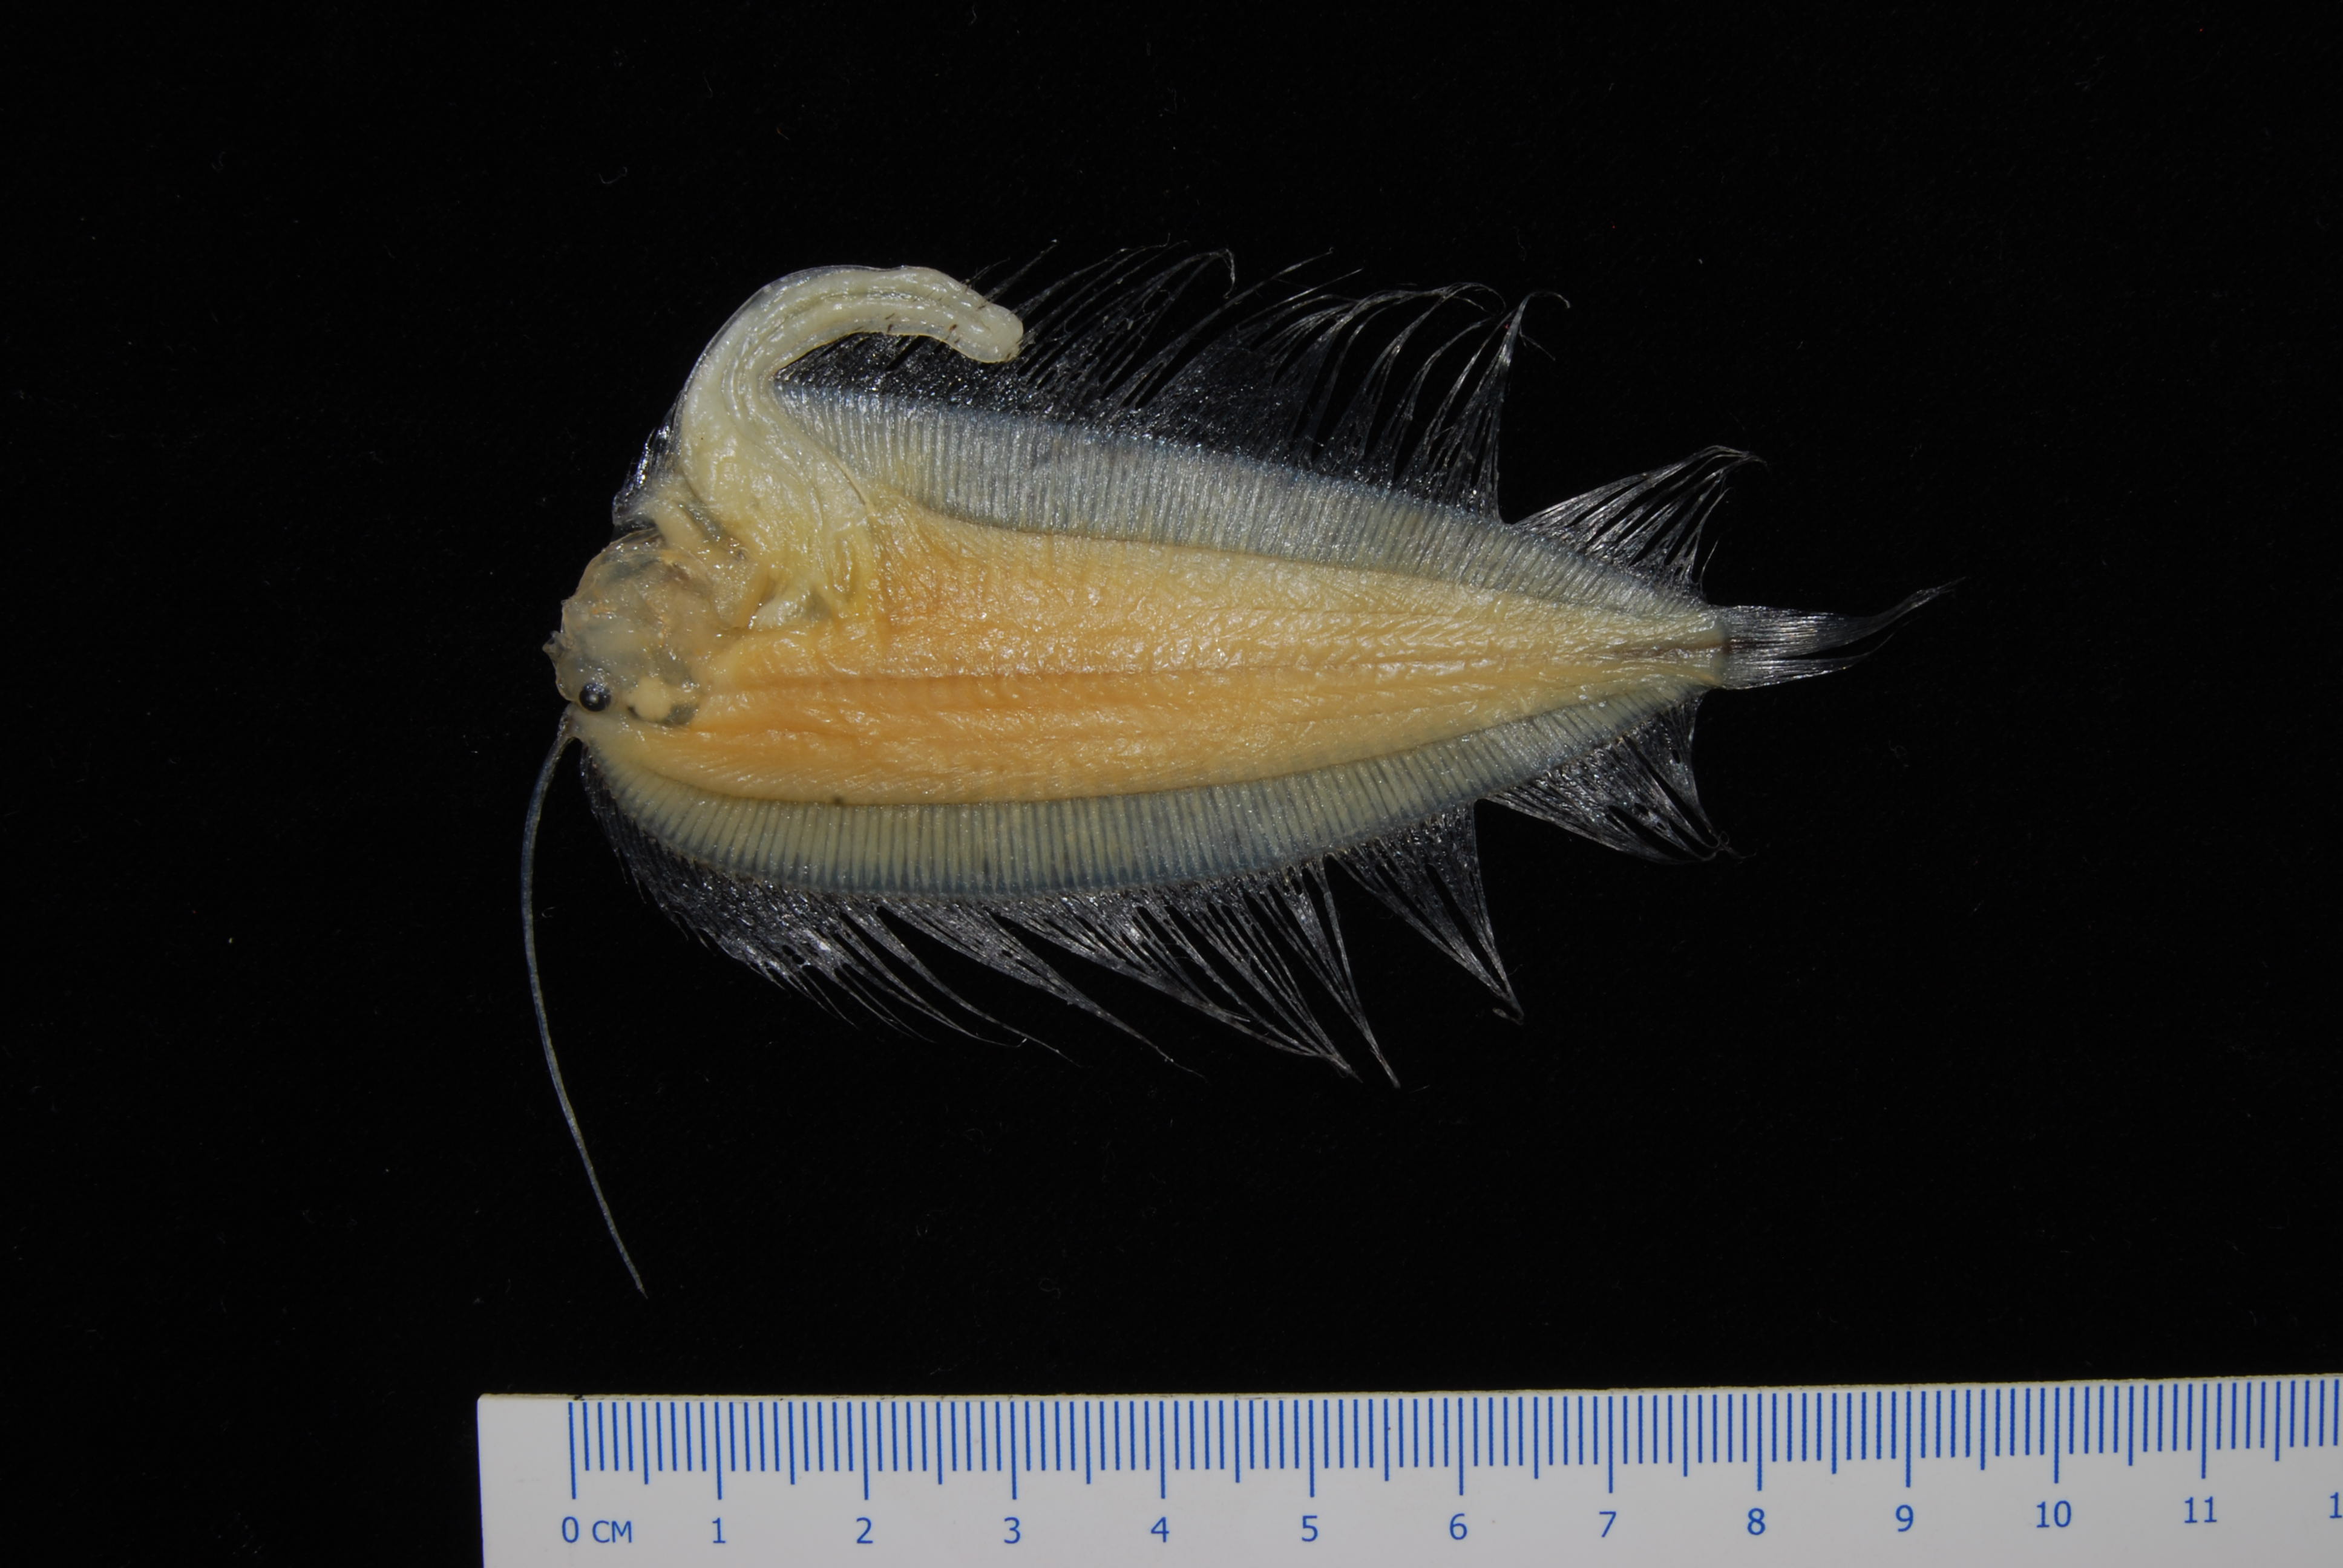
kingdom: Animalia
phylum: Chordata
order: Pleuronectiformes
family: Bothidae
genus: Laeops
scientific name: Laeops nigromaculatus
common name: Blackspotted flounder
